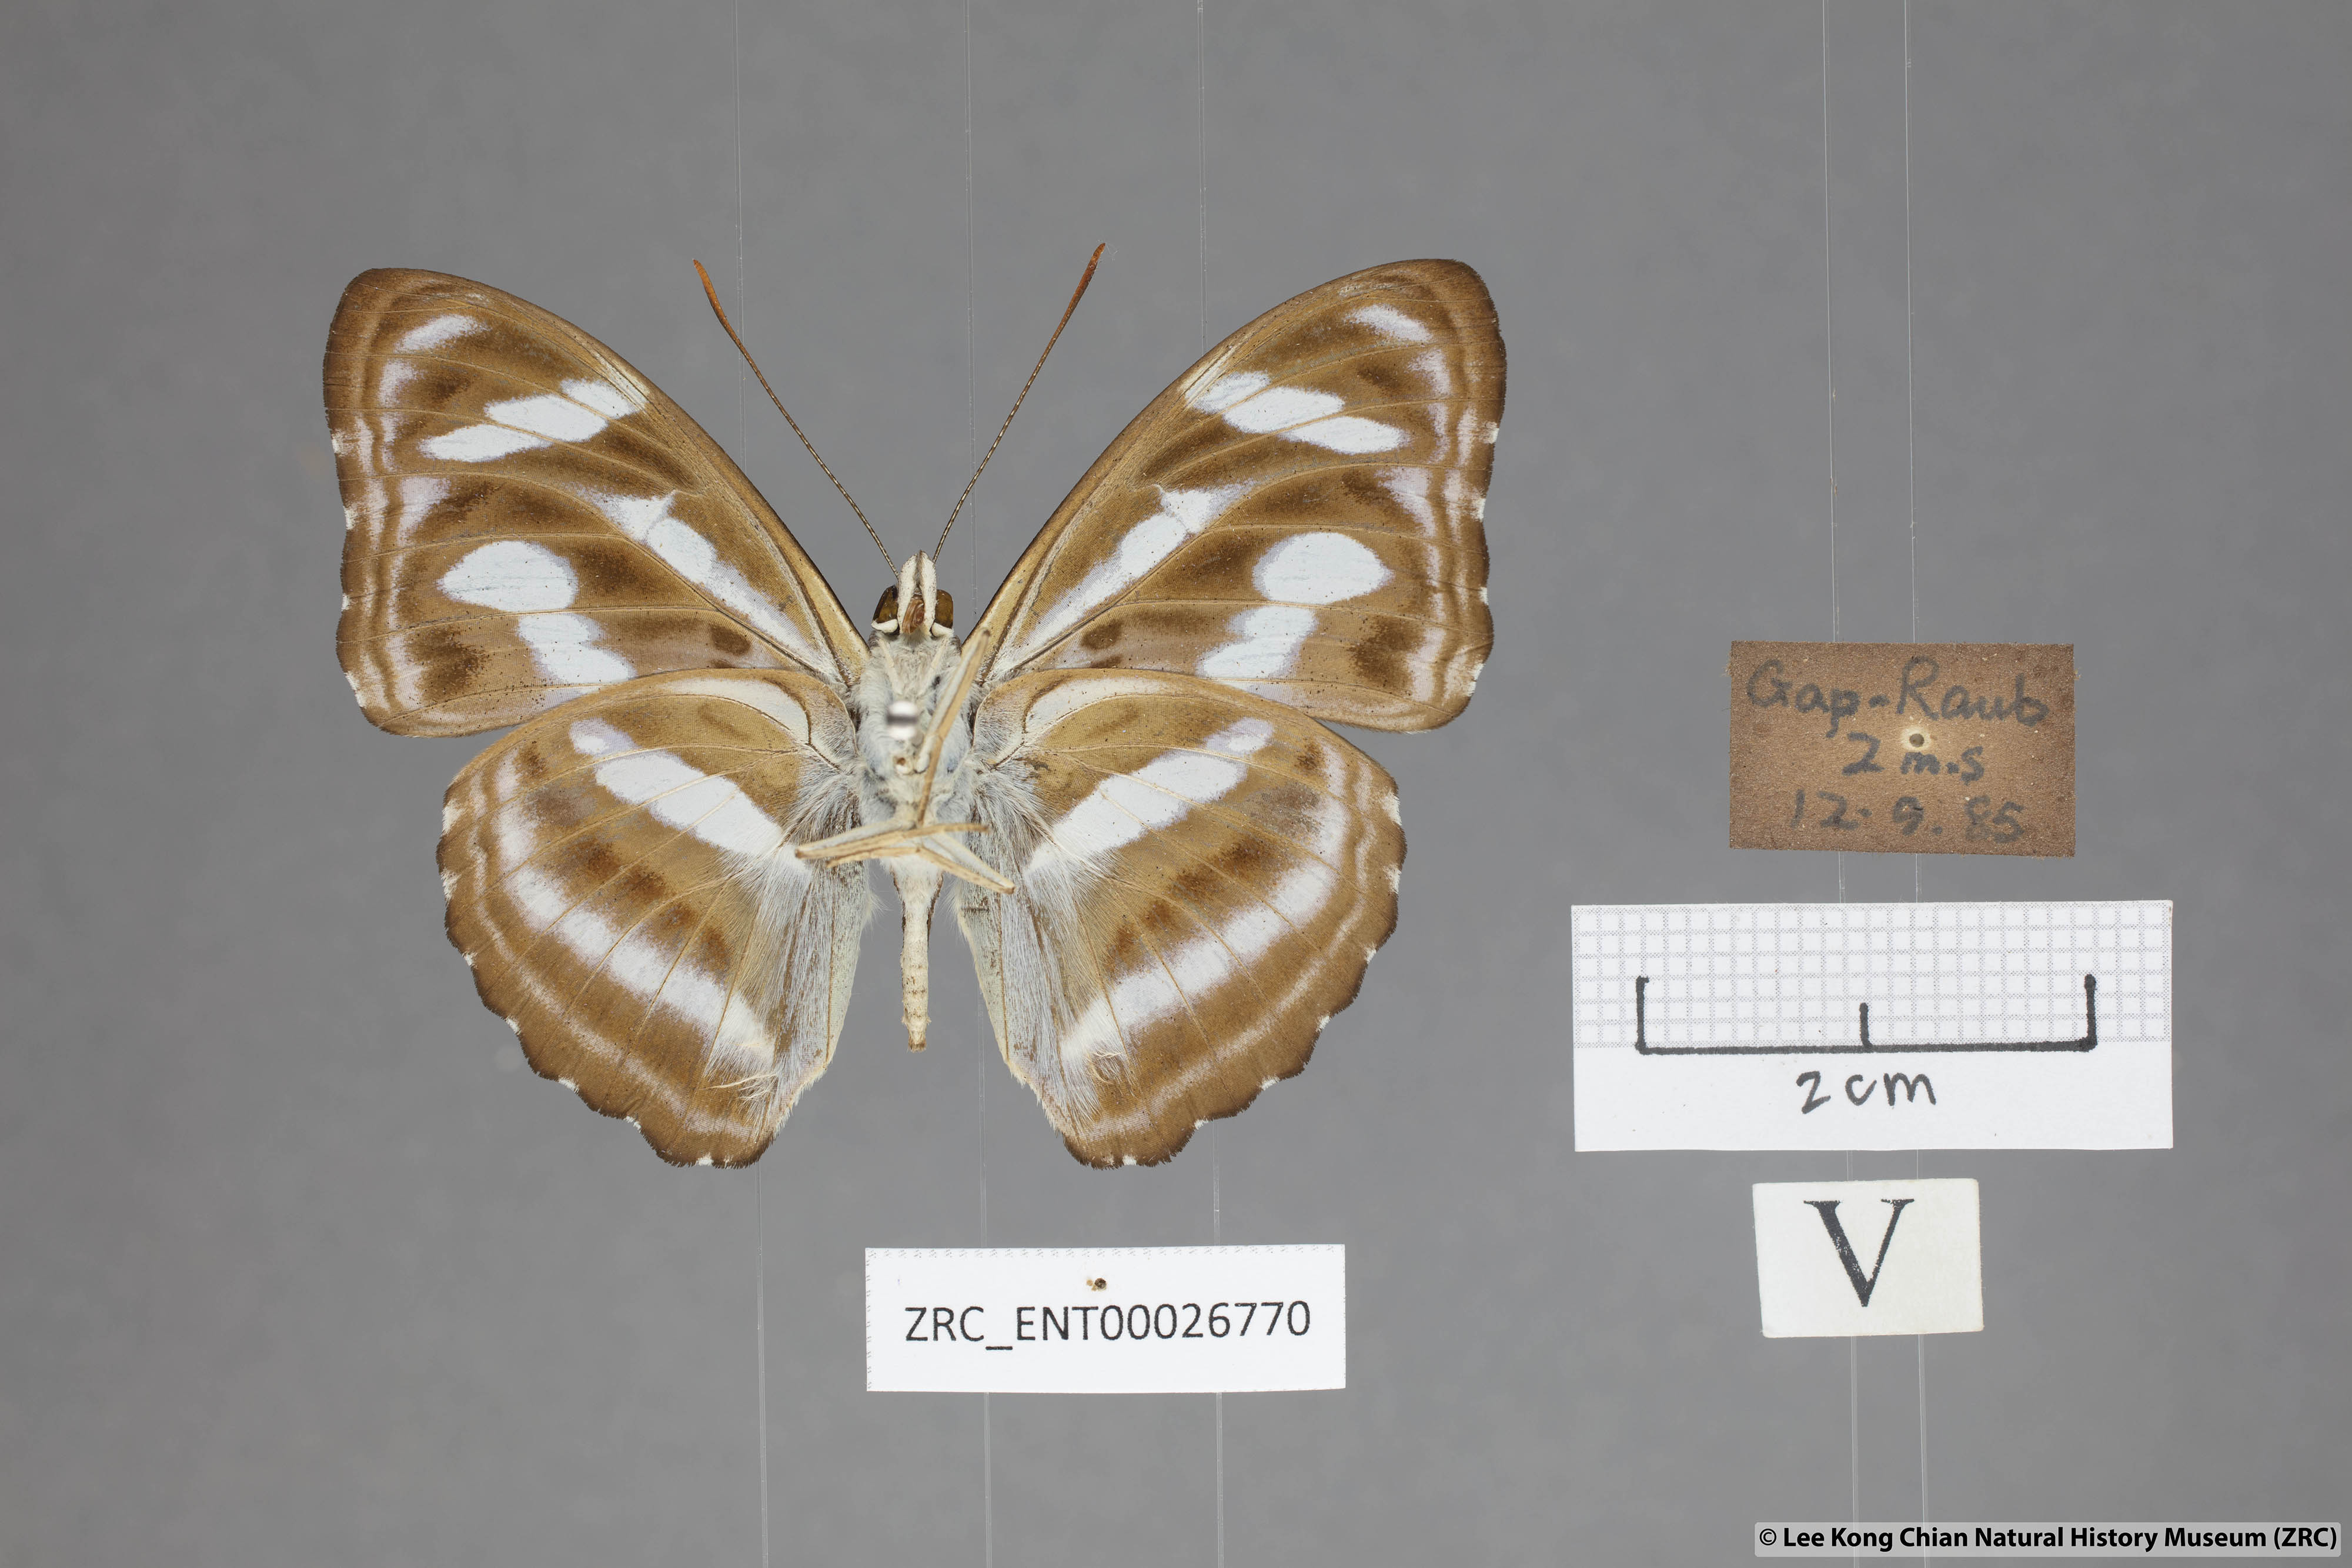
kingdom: Animalia
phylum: Arthropoda
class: Insecta
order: Lepidoptera
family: Nymphalidae
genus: Parathyma
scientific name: Parathyma nefte
